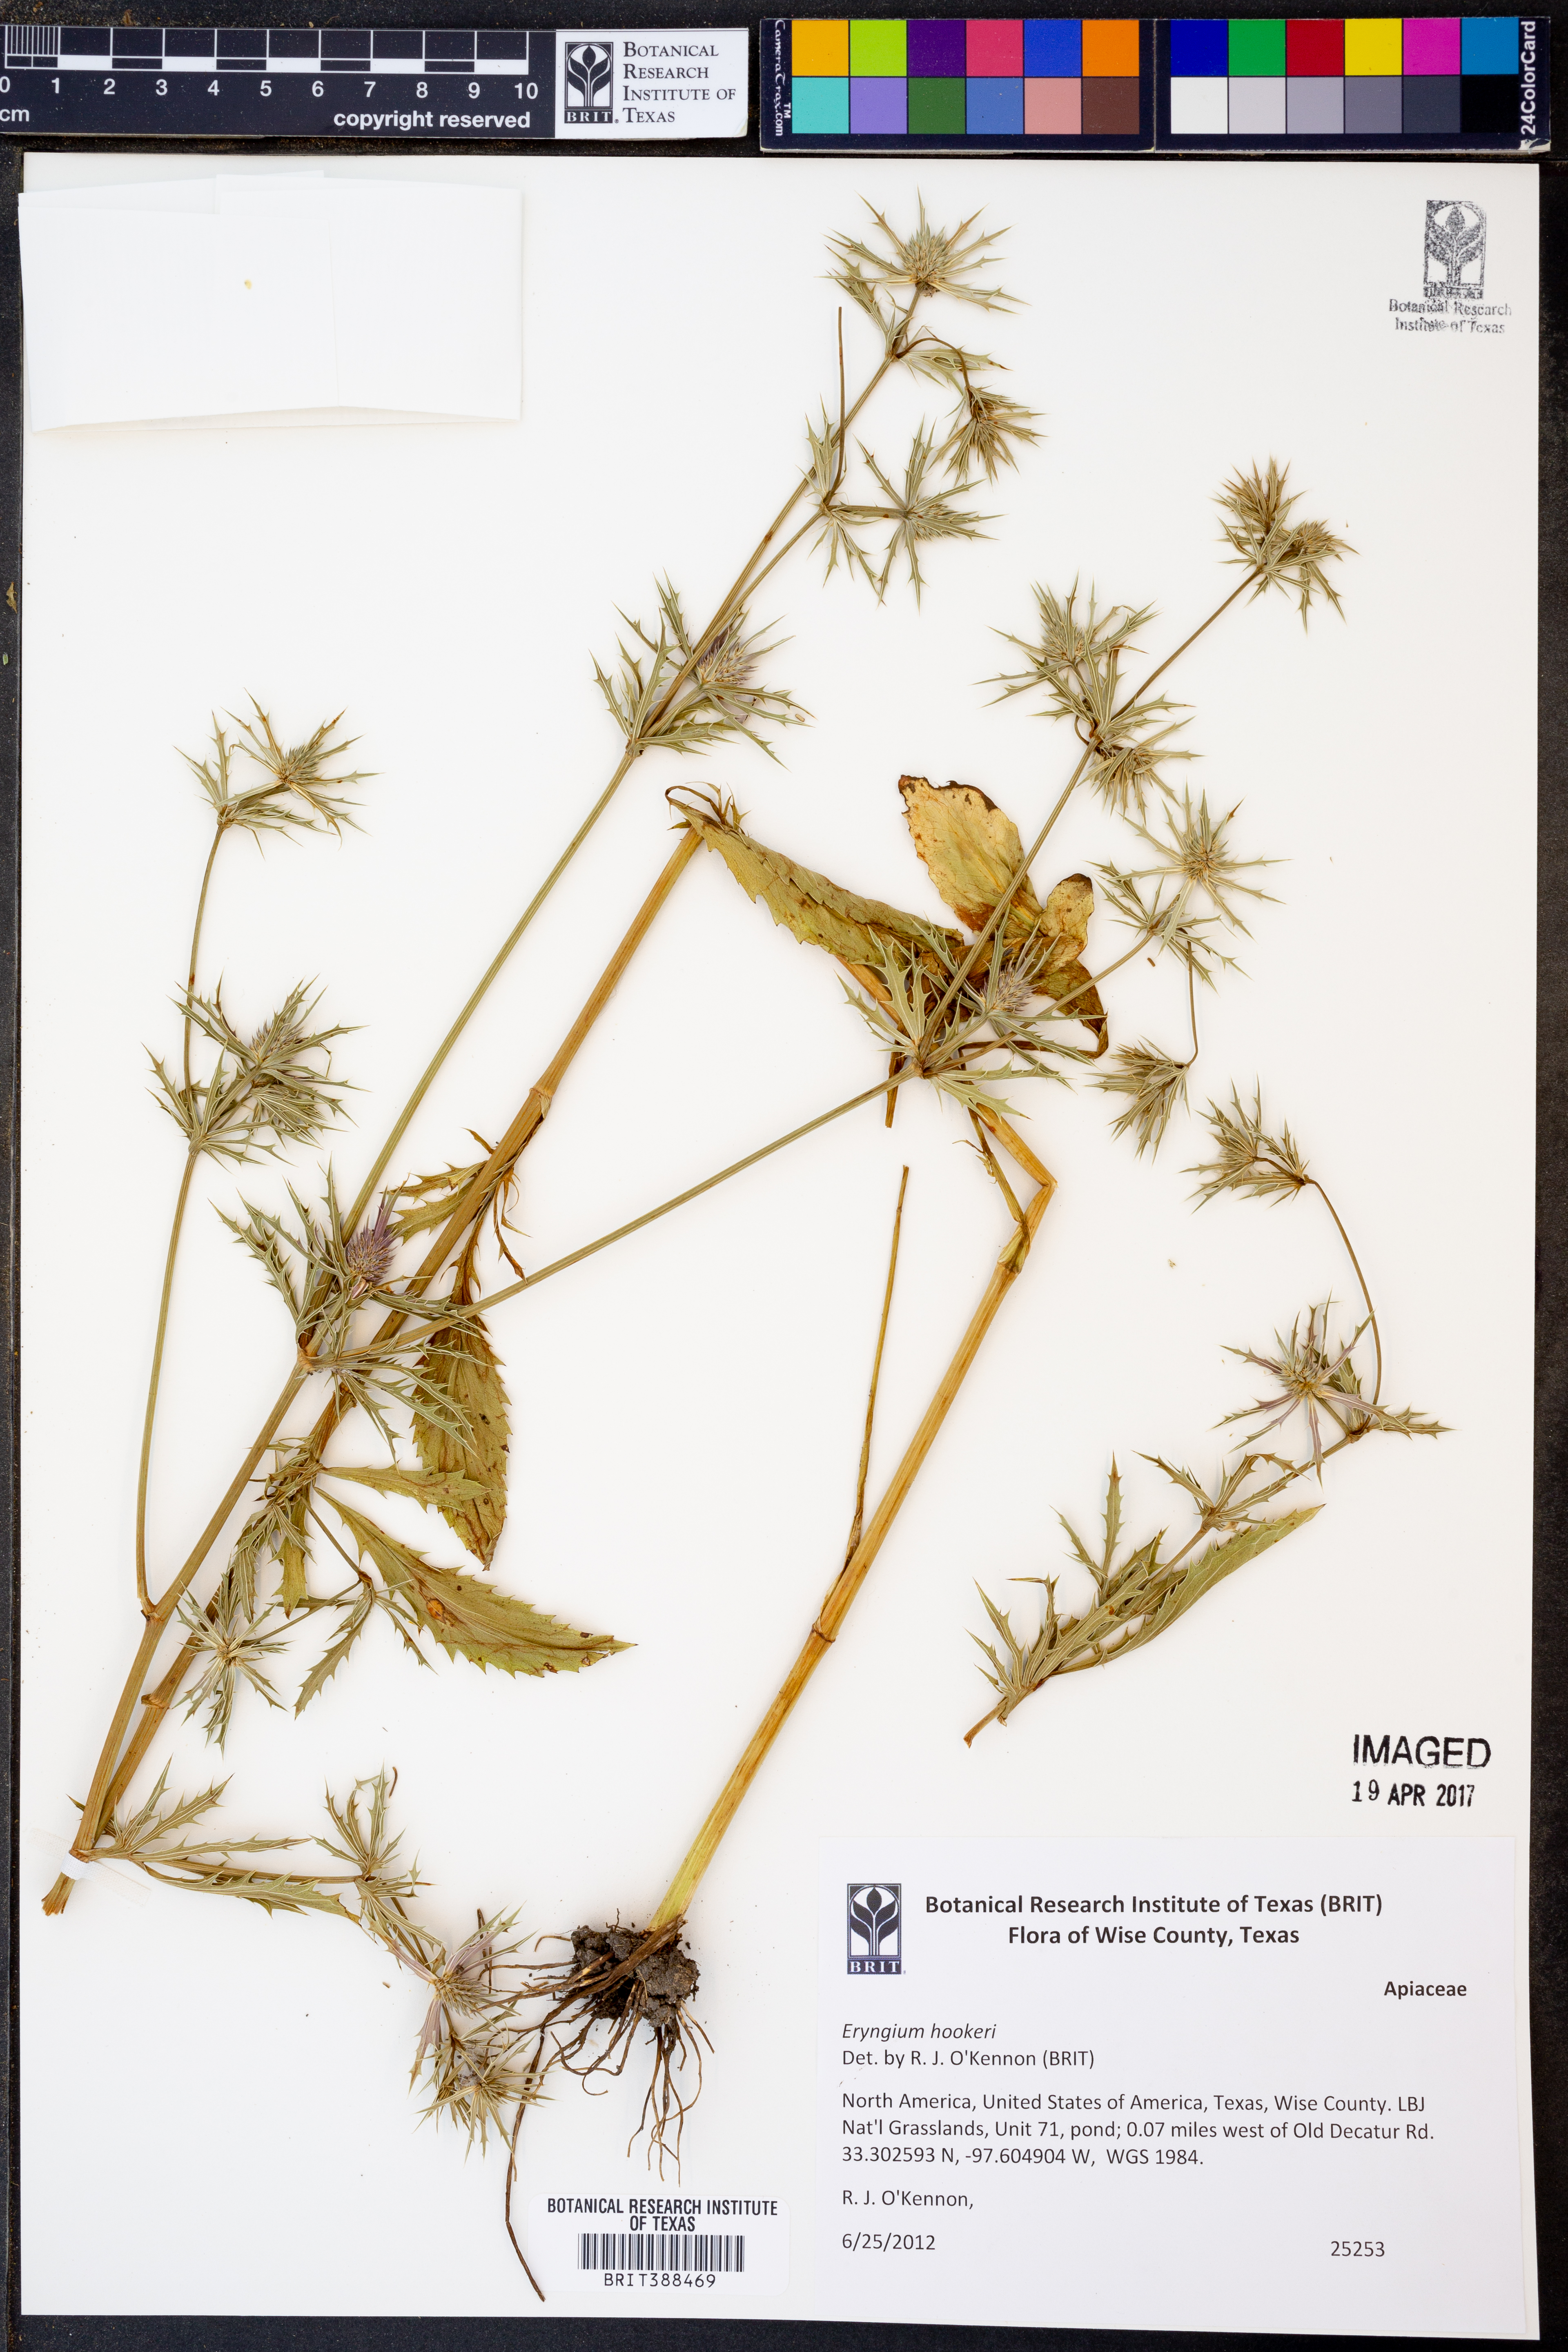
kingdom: Plantae
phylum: Tracheophyta
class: Magnoliopsida
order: Apiales
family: Apiaceae
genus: Eryngium
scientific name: Eryngium hookeri
